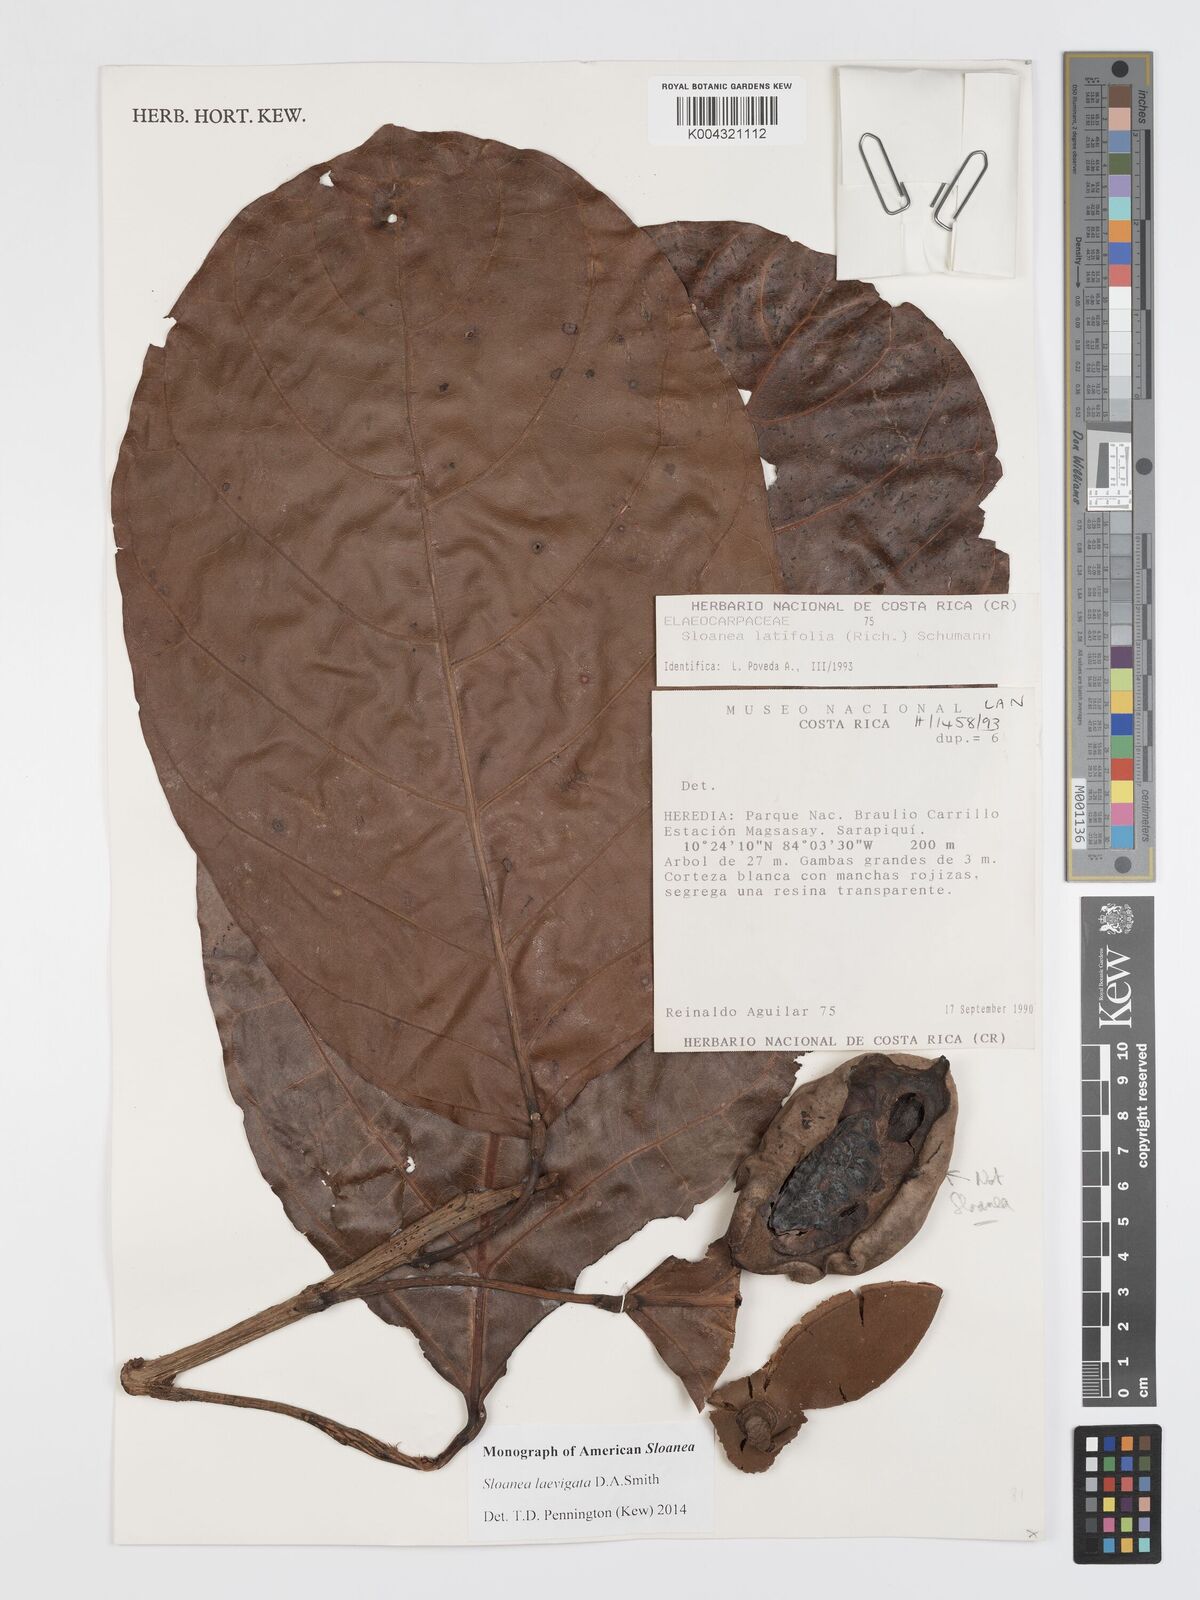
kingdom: Plantae
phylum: Tracheophyta
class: Magnoliopsida
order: Oxalidales
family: Elaeocarpaceae
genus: Sloanea
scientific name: Sloanea laevigata
